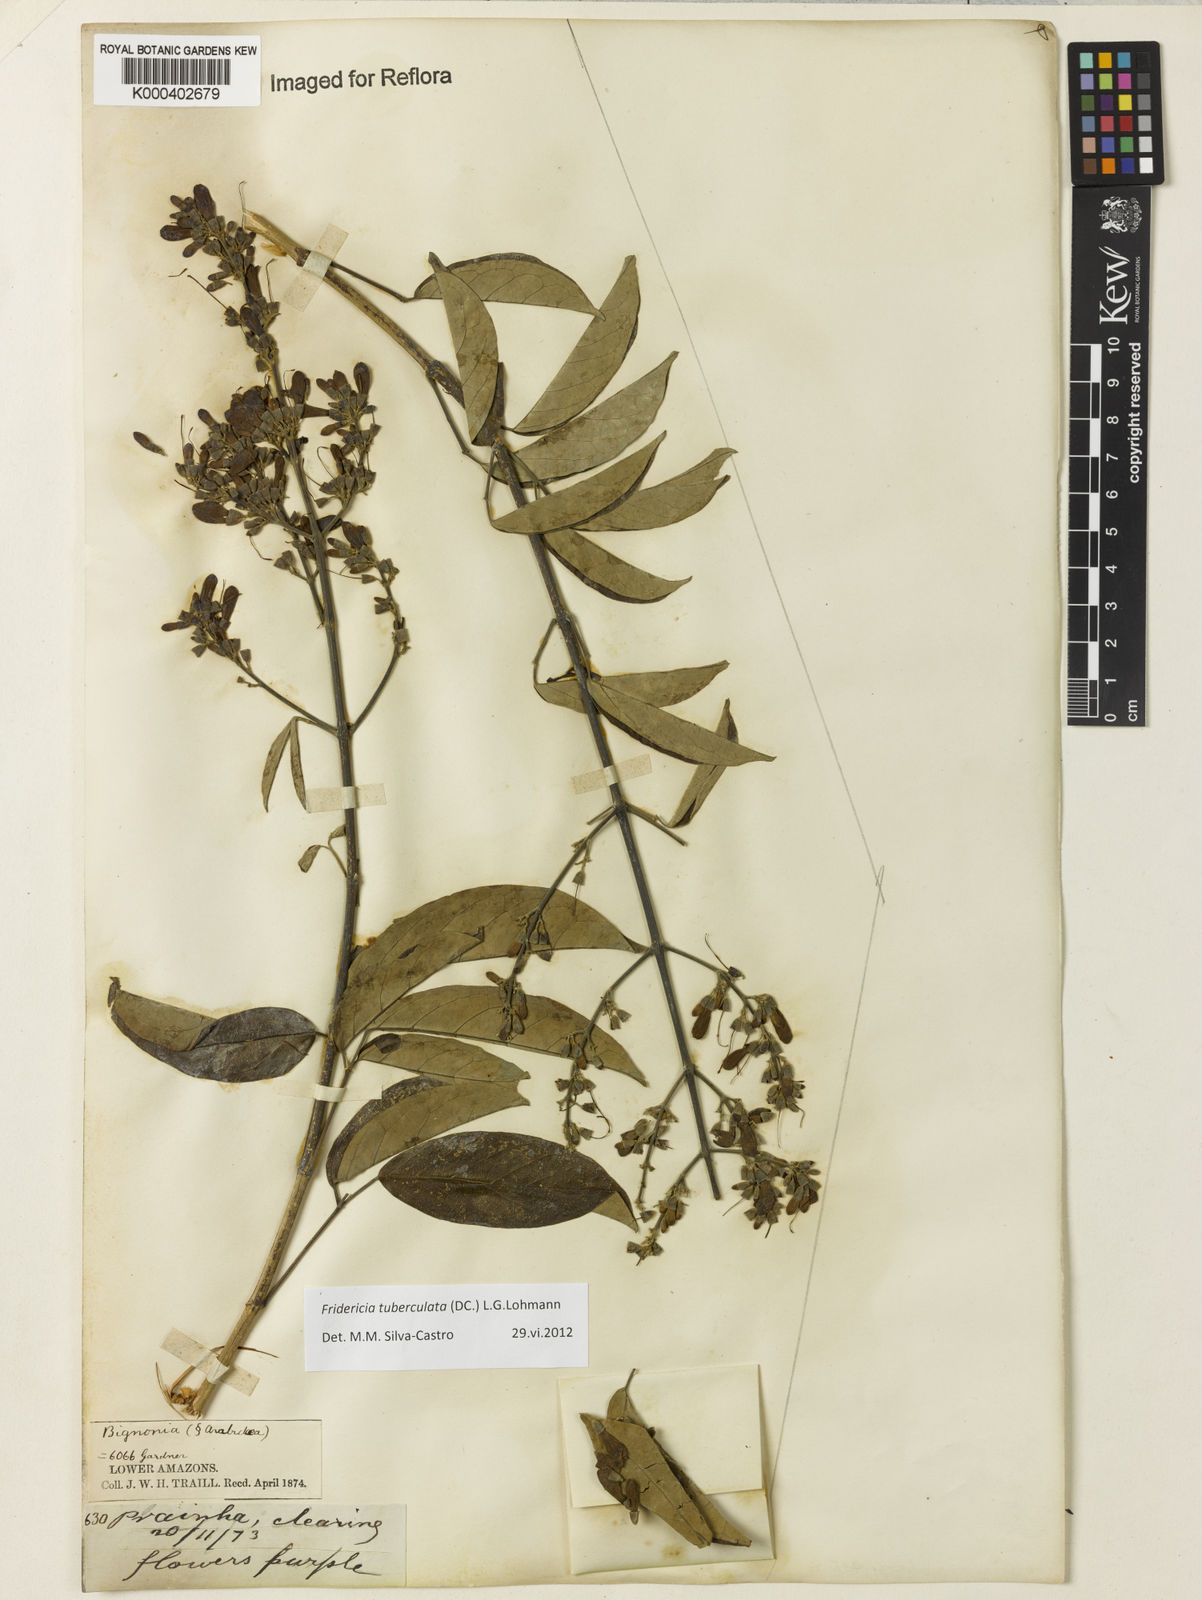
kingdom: Plantae
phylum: Tracheophyta
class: Magnoliopsida
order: Lamiales
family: Bignoniaceae
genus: Fridericia
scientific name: Fridericia tuberculata
